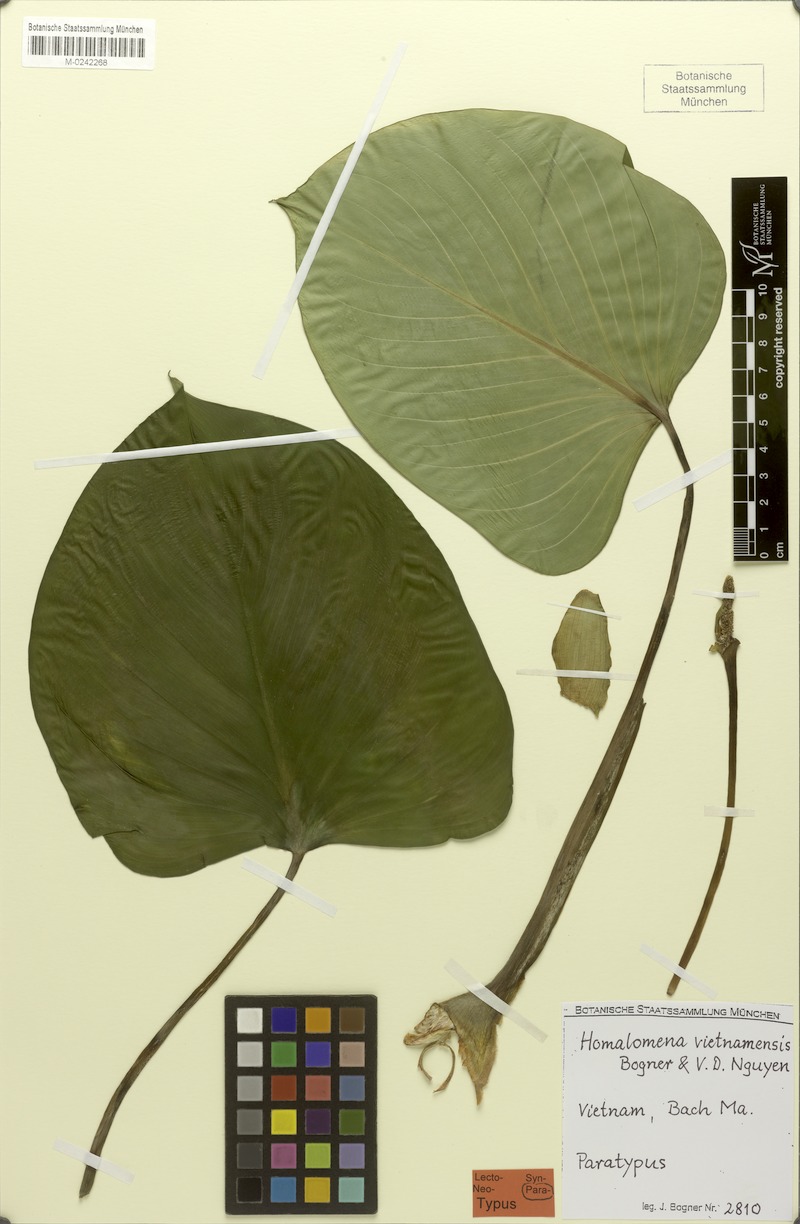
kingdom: Plantae
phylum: Tracheophyta
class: Liliopsida
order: Alismatales
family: Araceae
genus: Homalomena
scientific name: Homalomena vietnamensis
